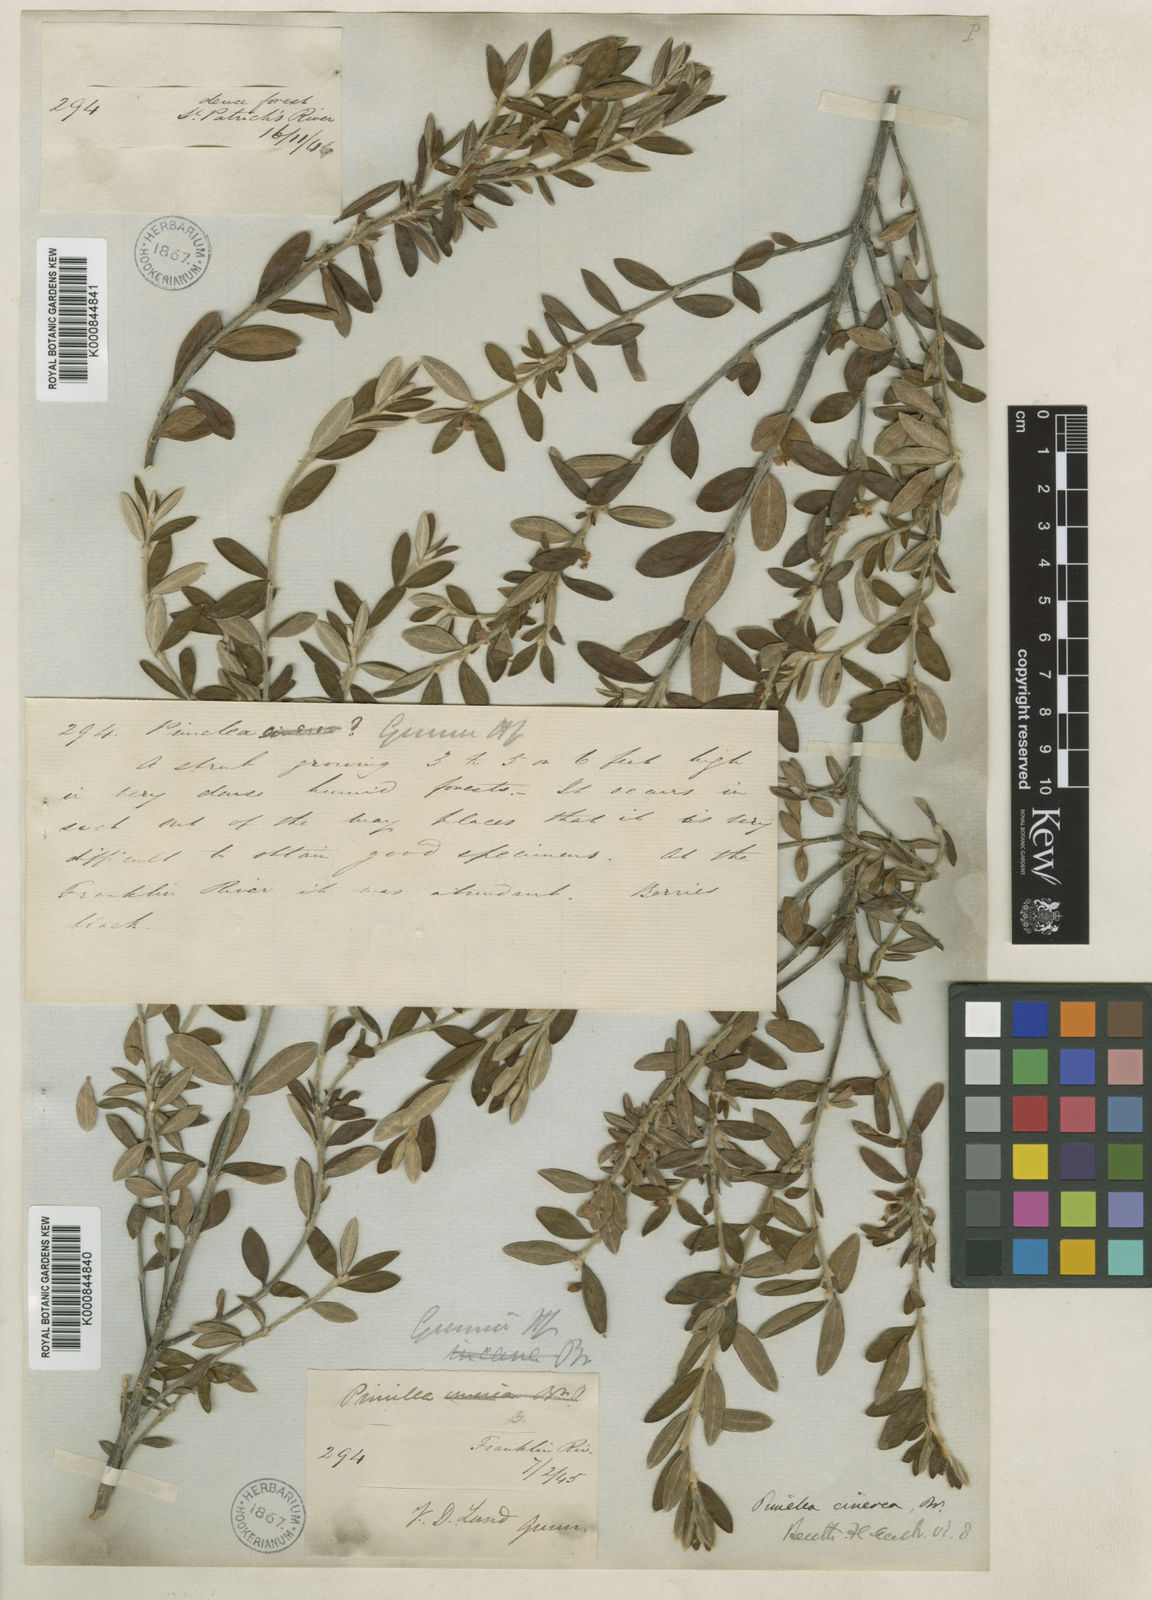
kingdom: Plantae
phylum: Tracheophyta
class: Magnoliopsida
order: Malvales
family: Thymelaeaceae
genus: Pimelea
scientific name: Pimelea cinerea
